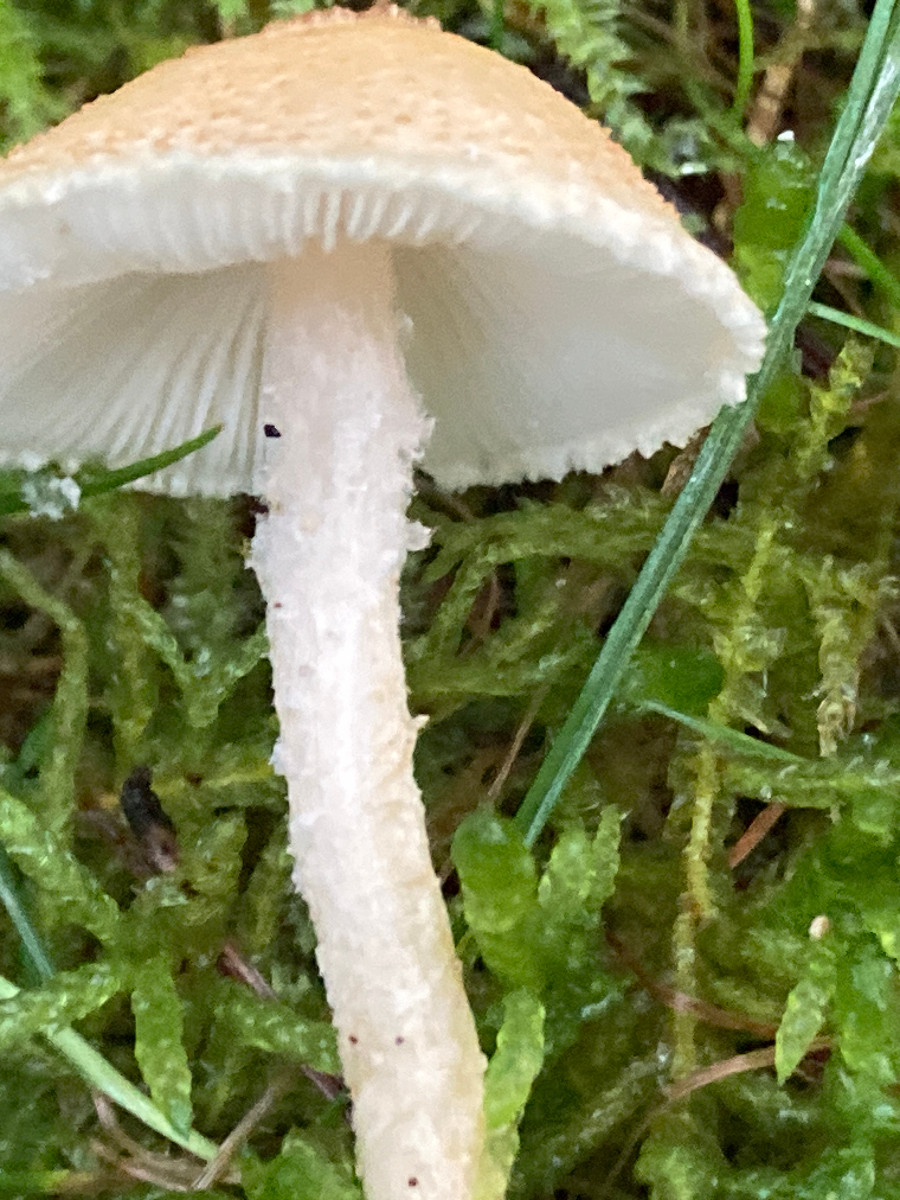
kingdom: Fungi
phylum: Basidiomycota
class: Agaricomycetes
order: Agaricales
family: Agaricaceae
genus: Lepiota
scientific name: Lepiota
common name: parasolhat
